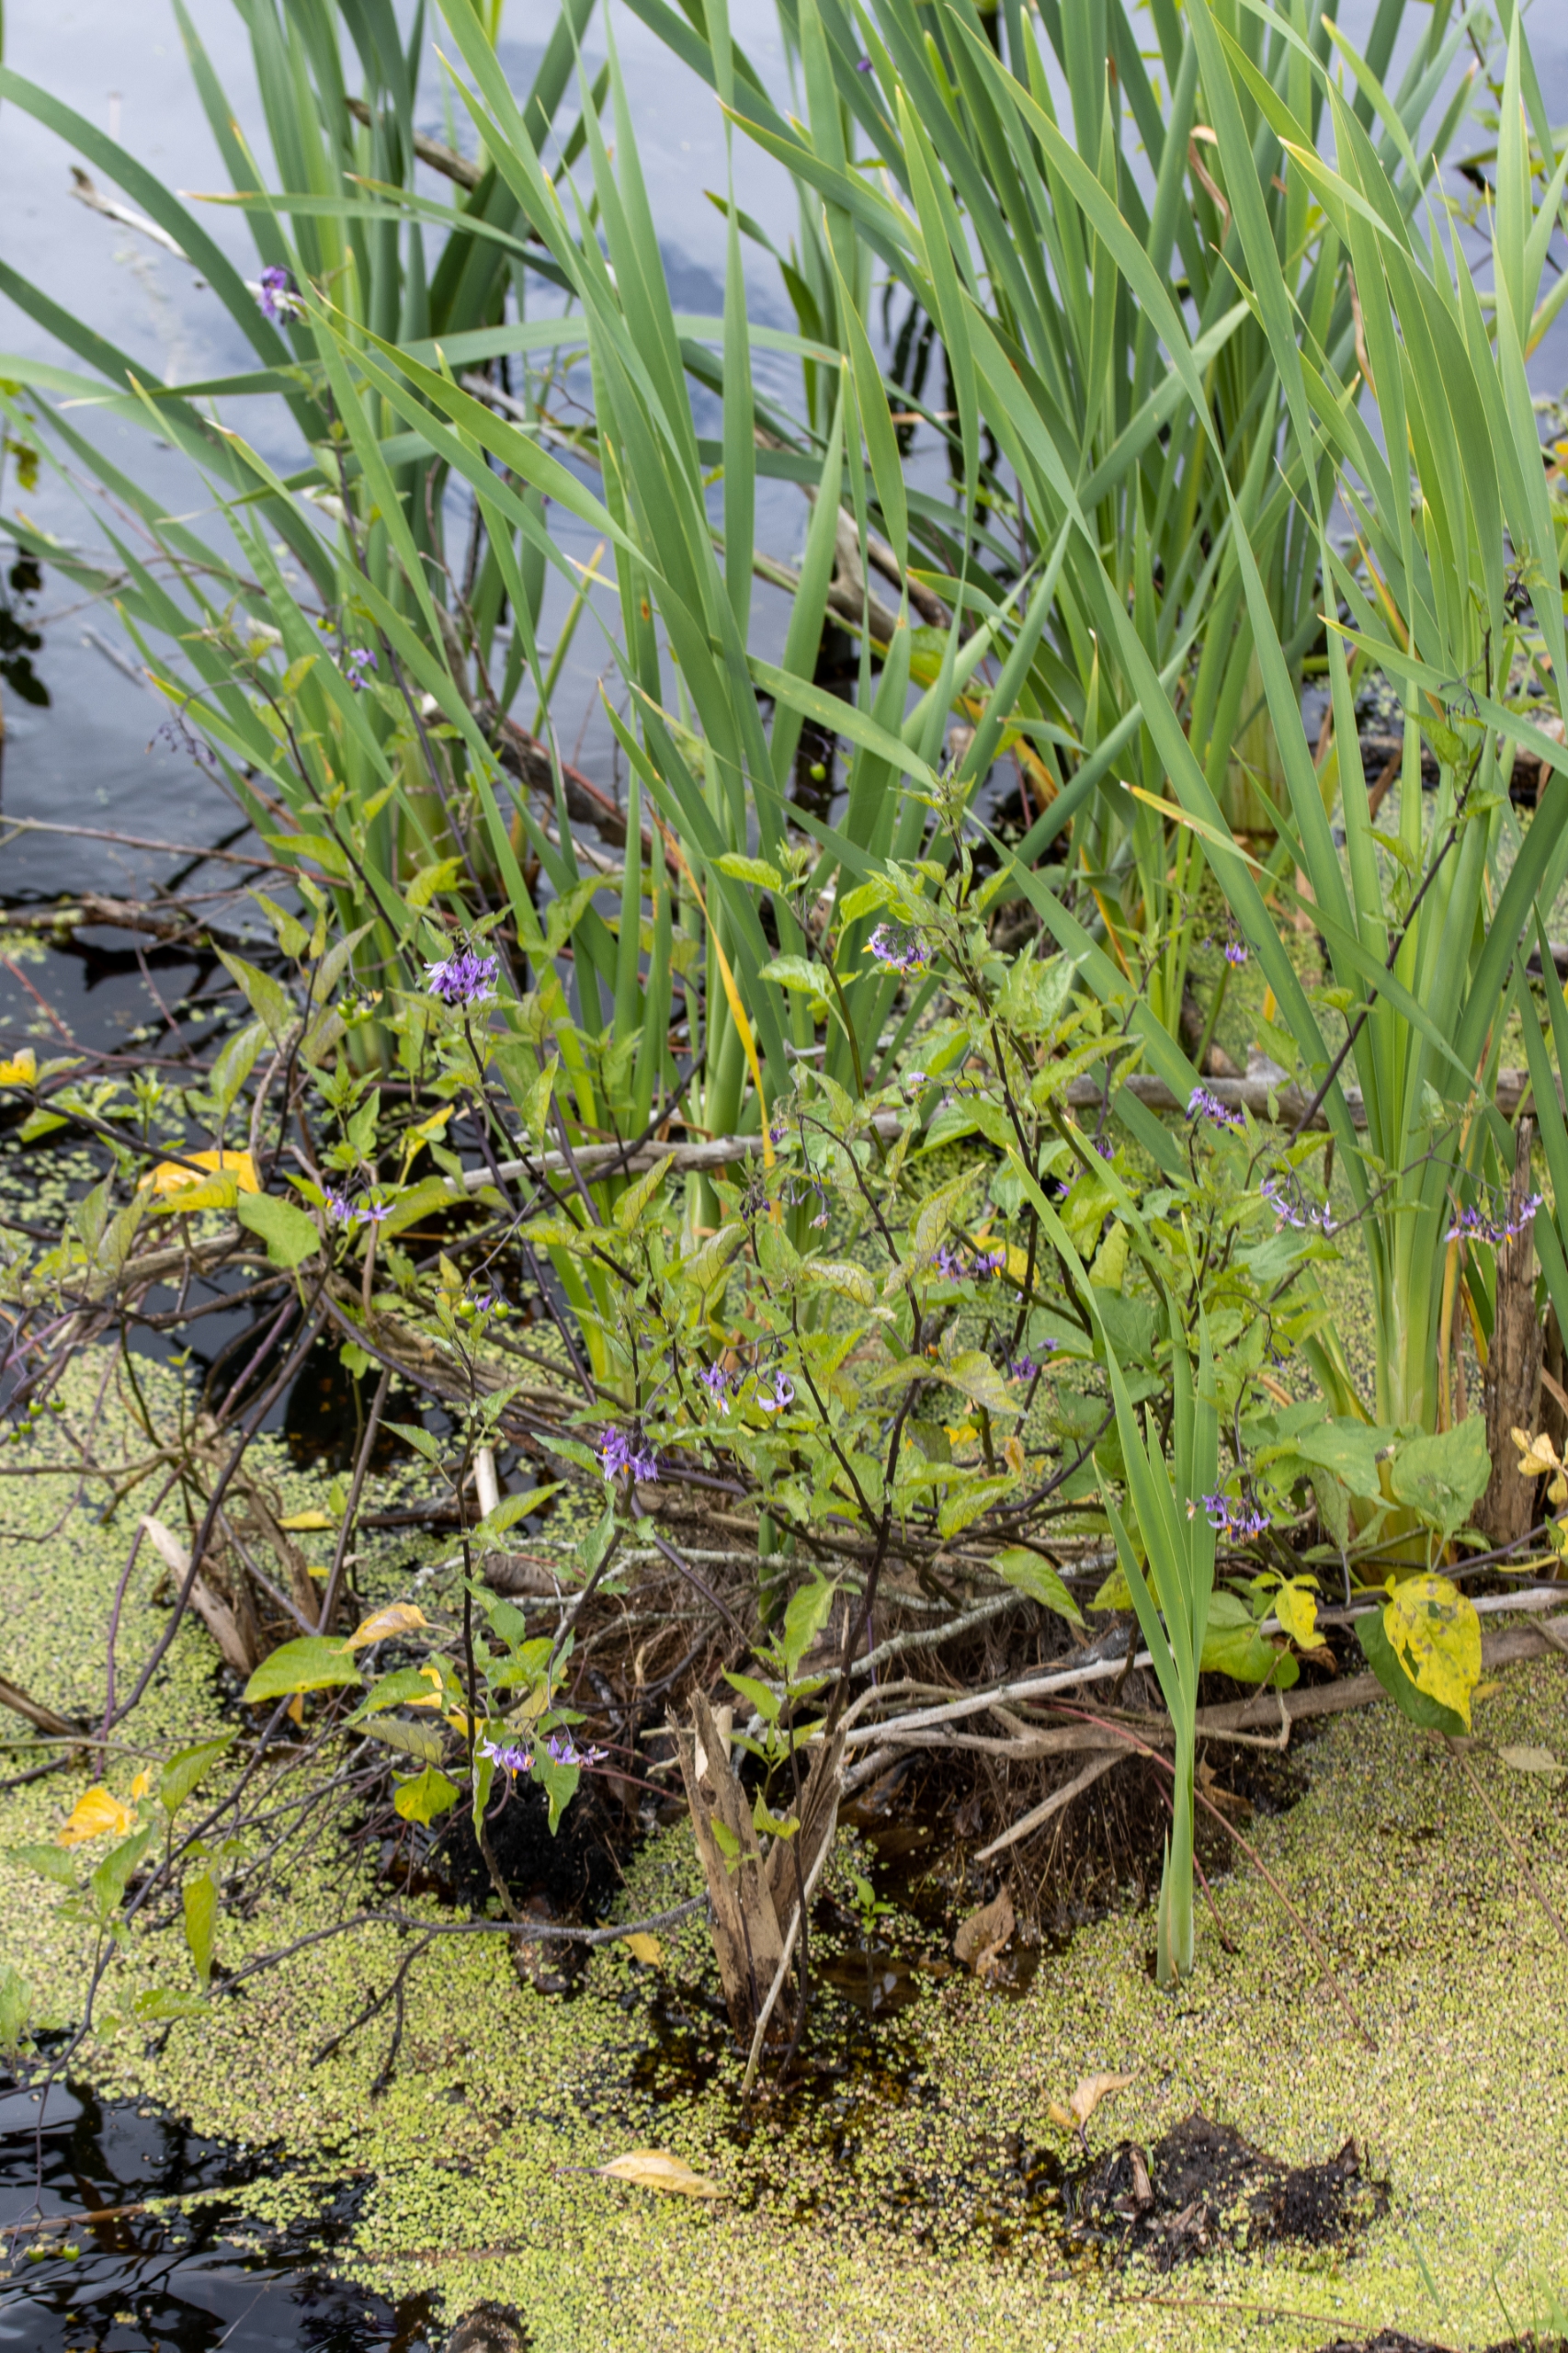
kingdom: Plantae
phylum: Tracheophyta
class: Magnoliopsida
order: Solanales
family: Solanaceae
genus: Solanum
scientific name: Solanum dulcamara
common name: Bittersød natskygge
